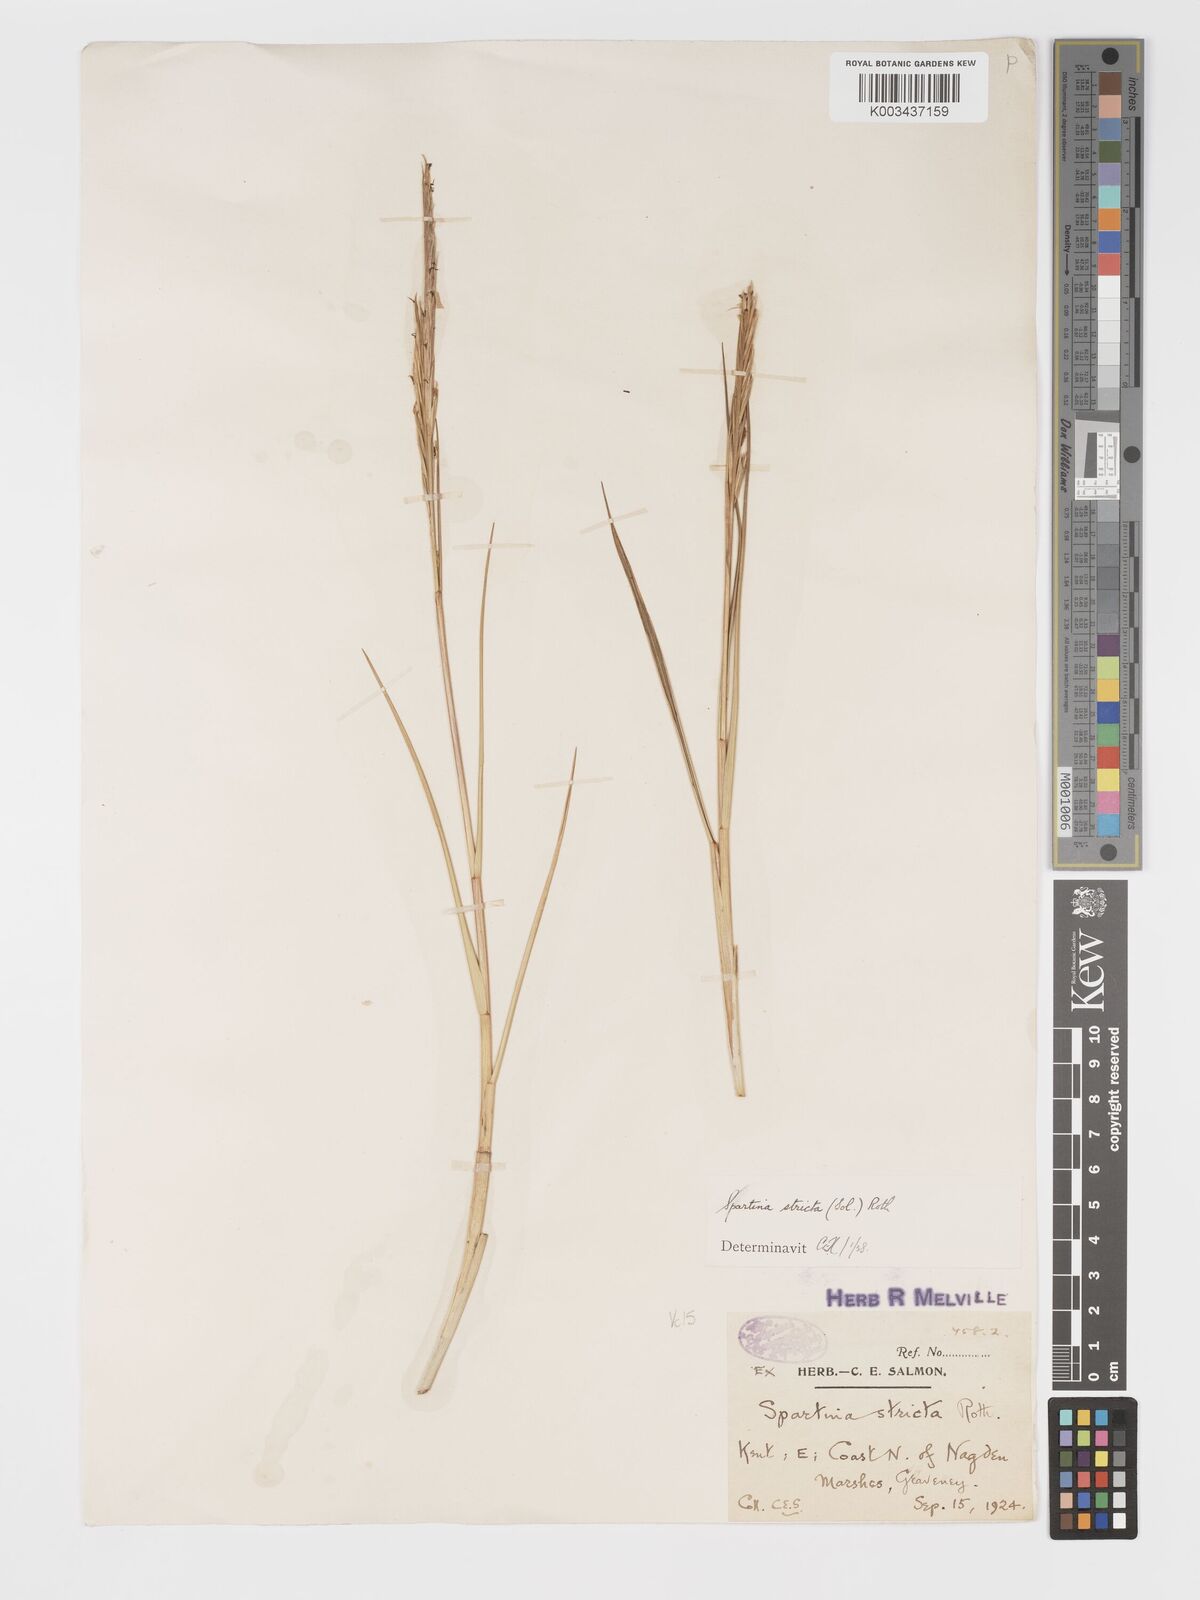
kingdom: Plantae
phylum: Tracheophyta
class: Liliopsida
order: Poales
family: Poaceae
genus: Sporobolus
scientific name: Sporobolus maritimus
